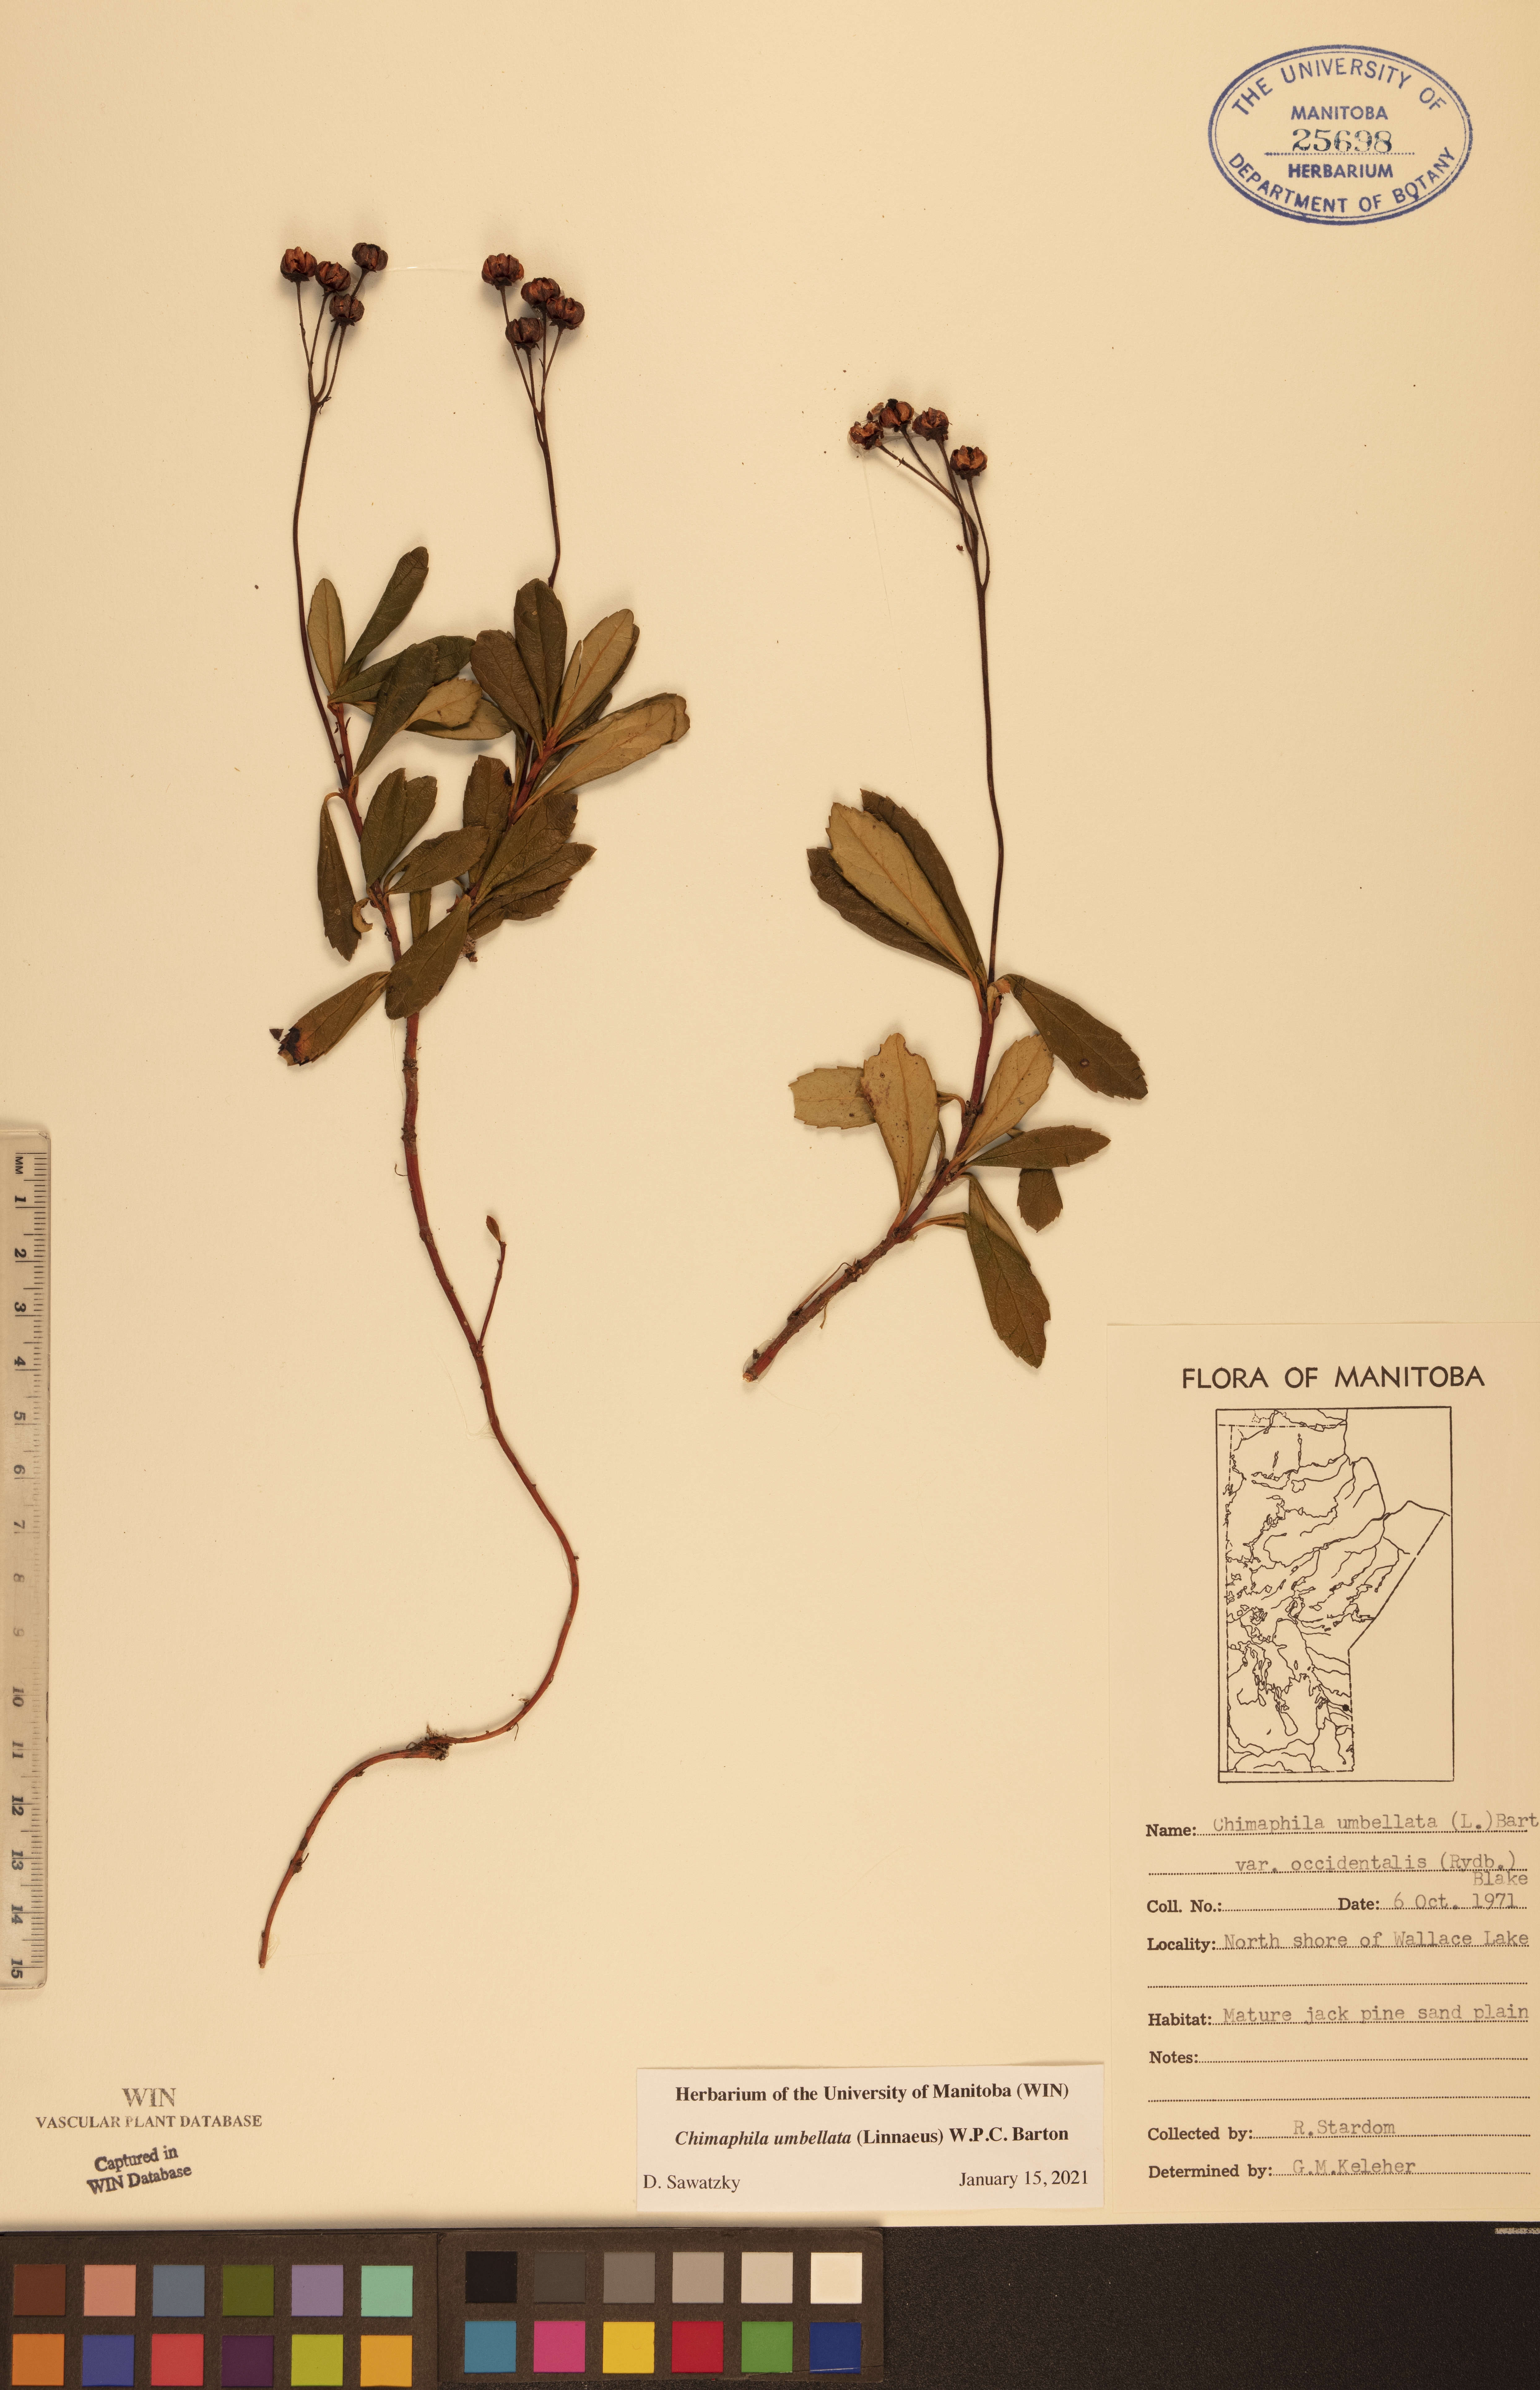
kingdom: Plantae
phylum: Tracheophyta
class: Magnoliopsida
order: Ericales
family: Ericaceae
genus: Chimaphila
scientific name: Chimaphila umbellata
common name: Pipsissewa
